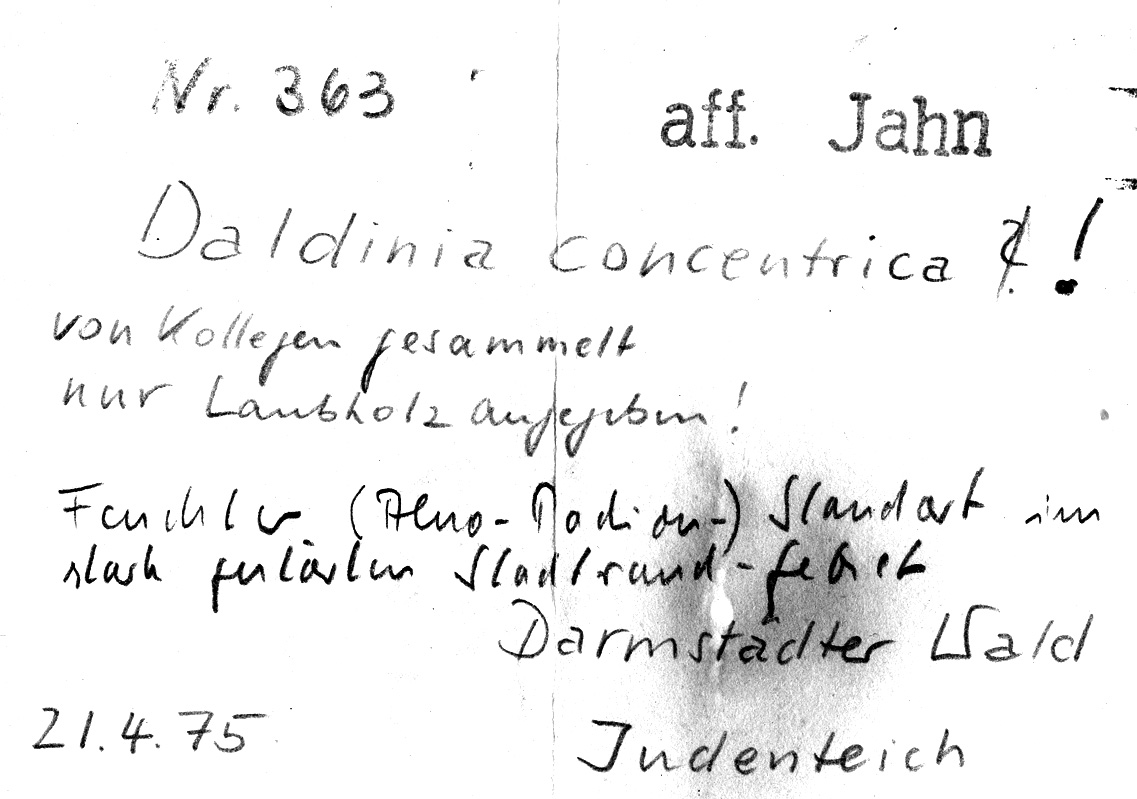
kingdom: Fungi
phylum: Ascomycota
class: Sordariomycetes
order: Xylariales
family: Hypoxylaceae
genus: Daldinia
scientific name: Daldinia concentrica
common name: Cramp balls
